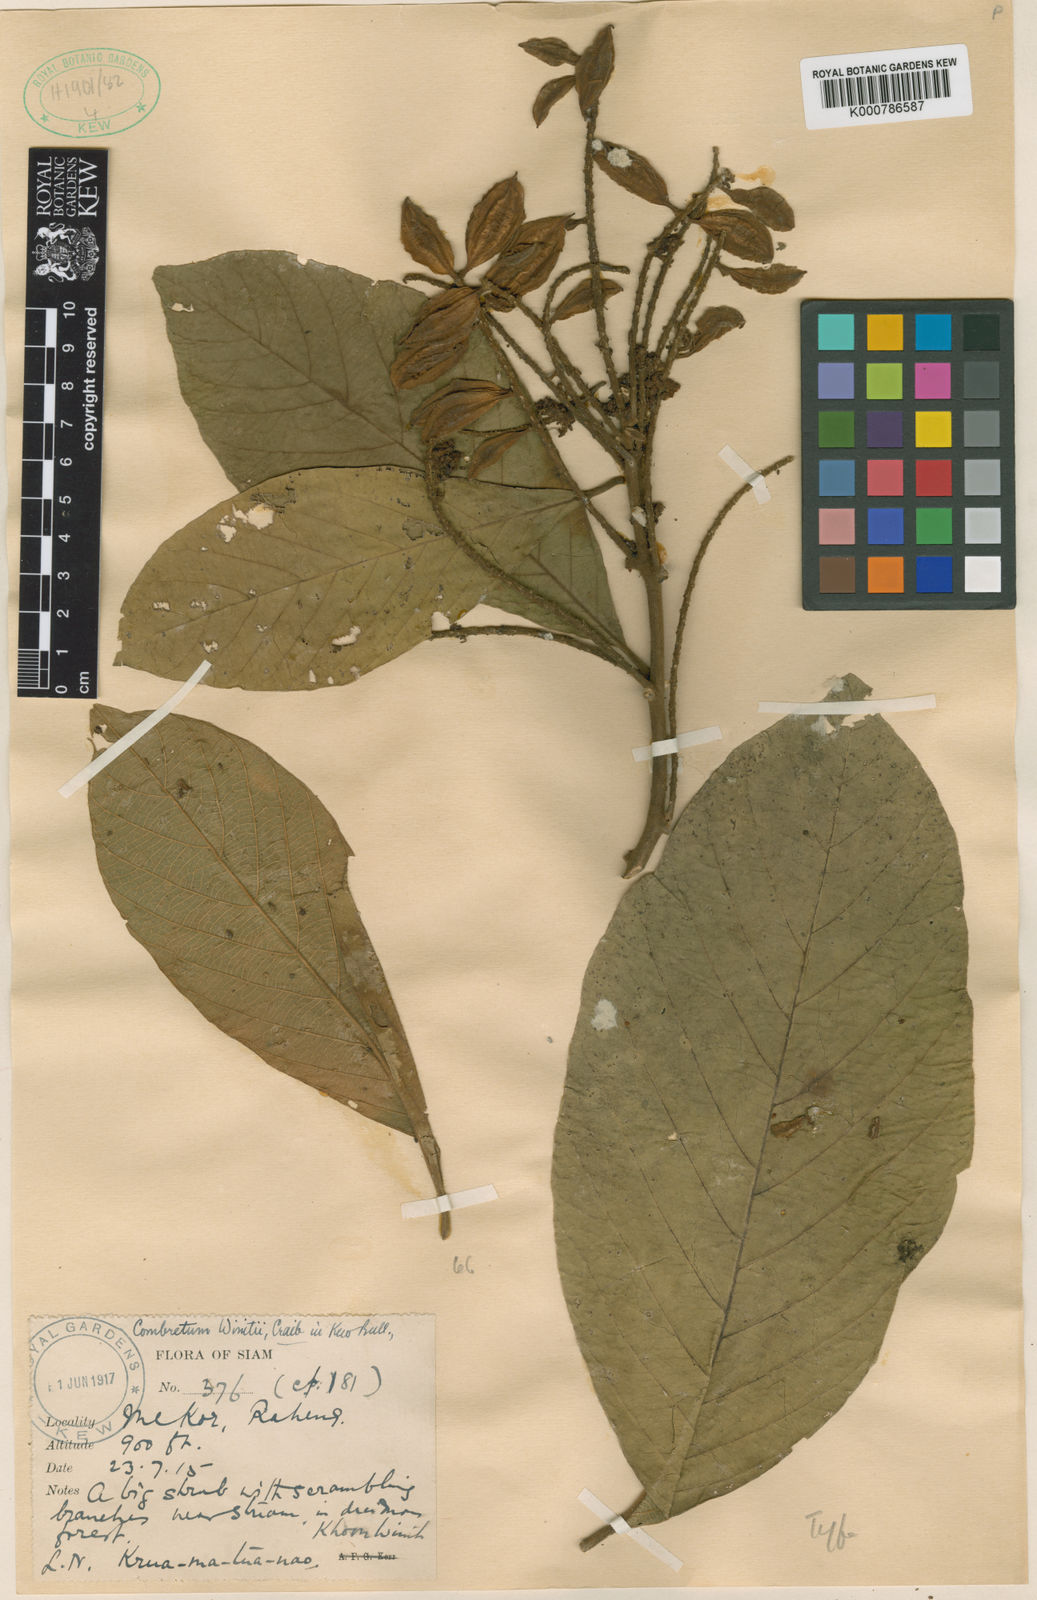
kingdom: Plantae
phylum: Tracheophyta
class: Magnoliopsida
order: Myrtales
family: Combretaceae
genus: Combretum
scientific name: Combretum winitii
